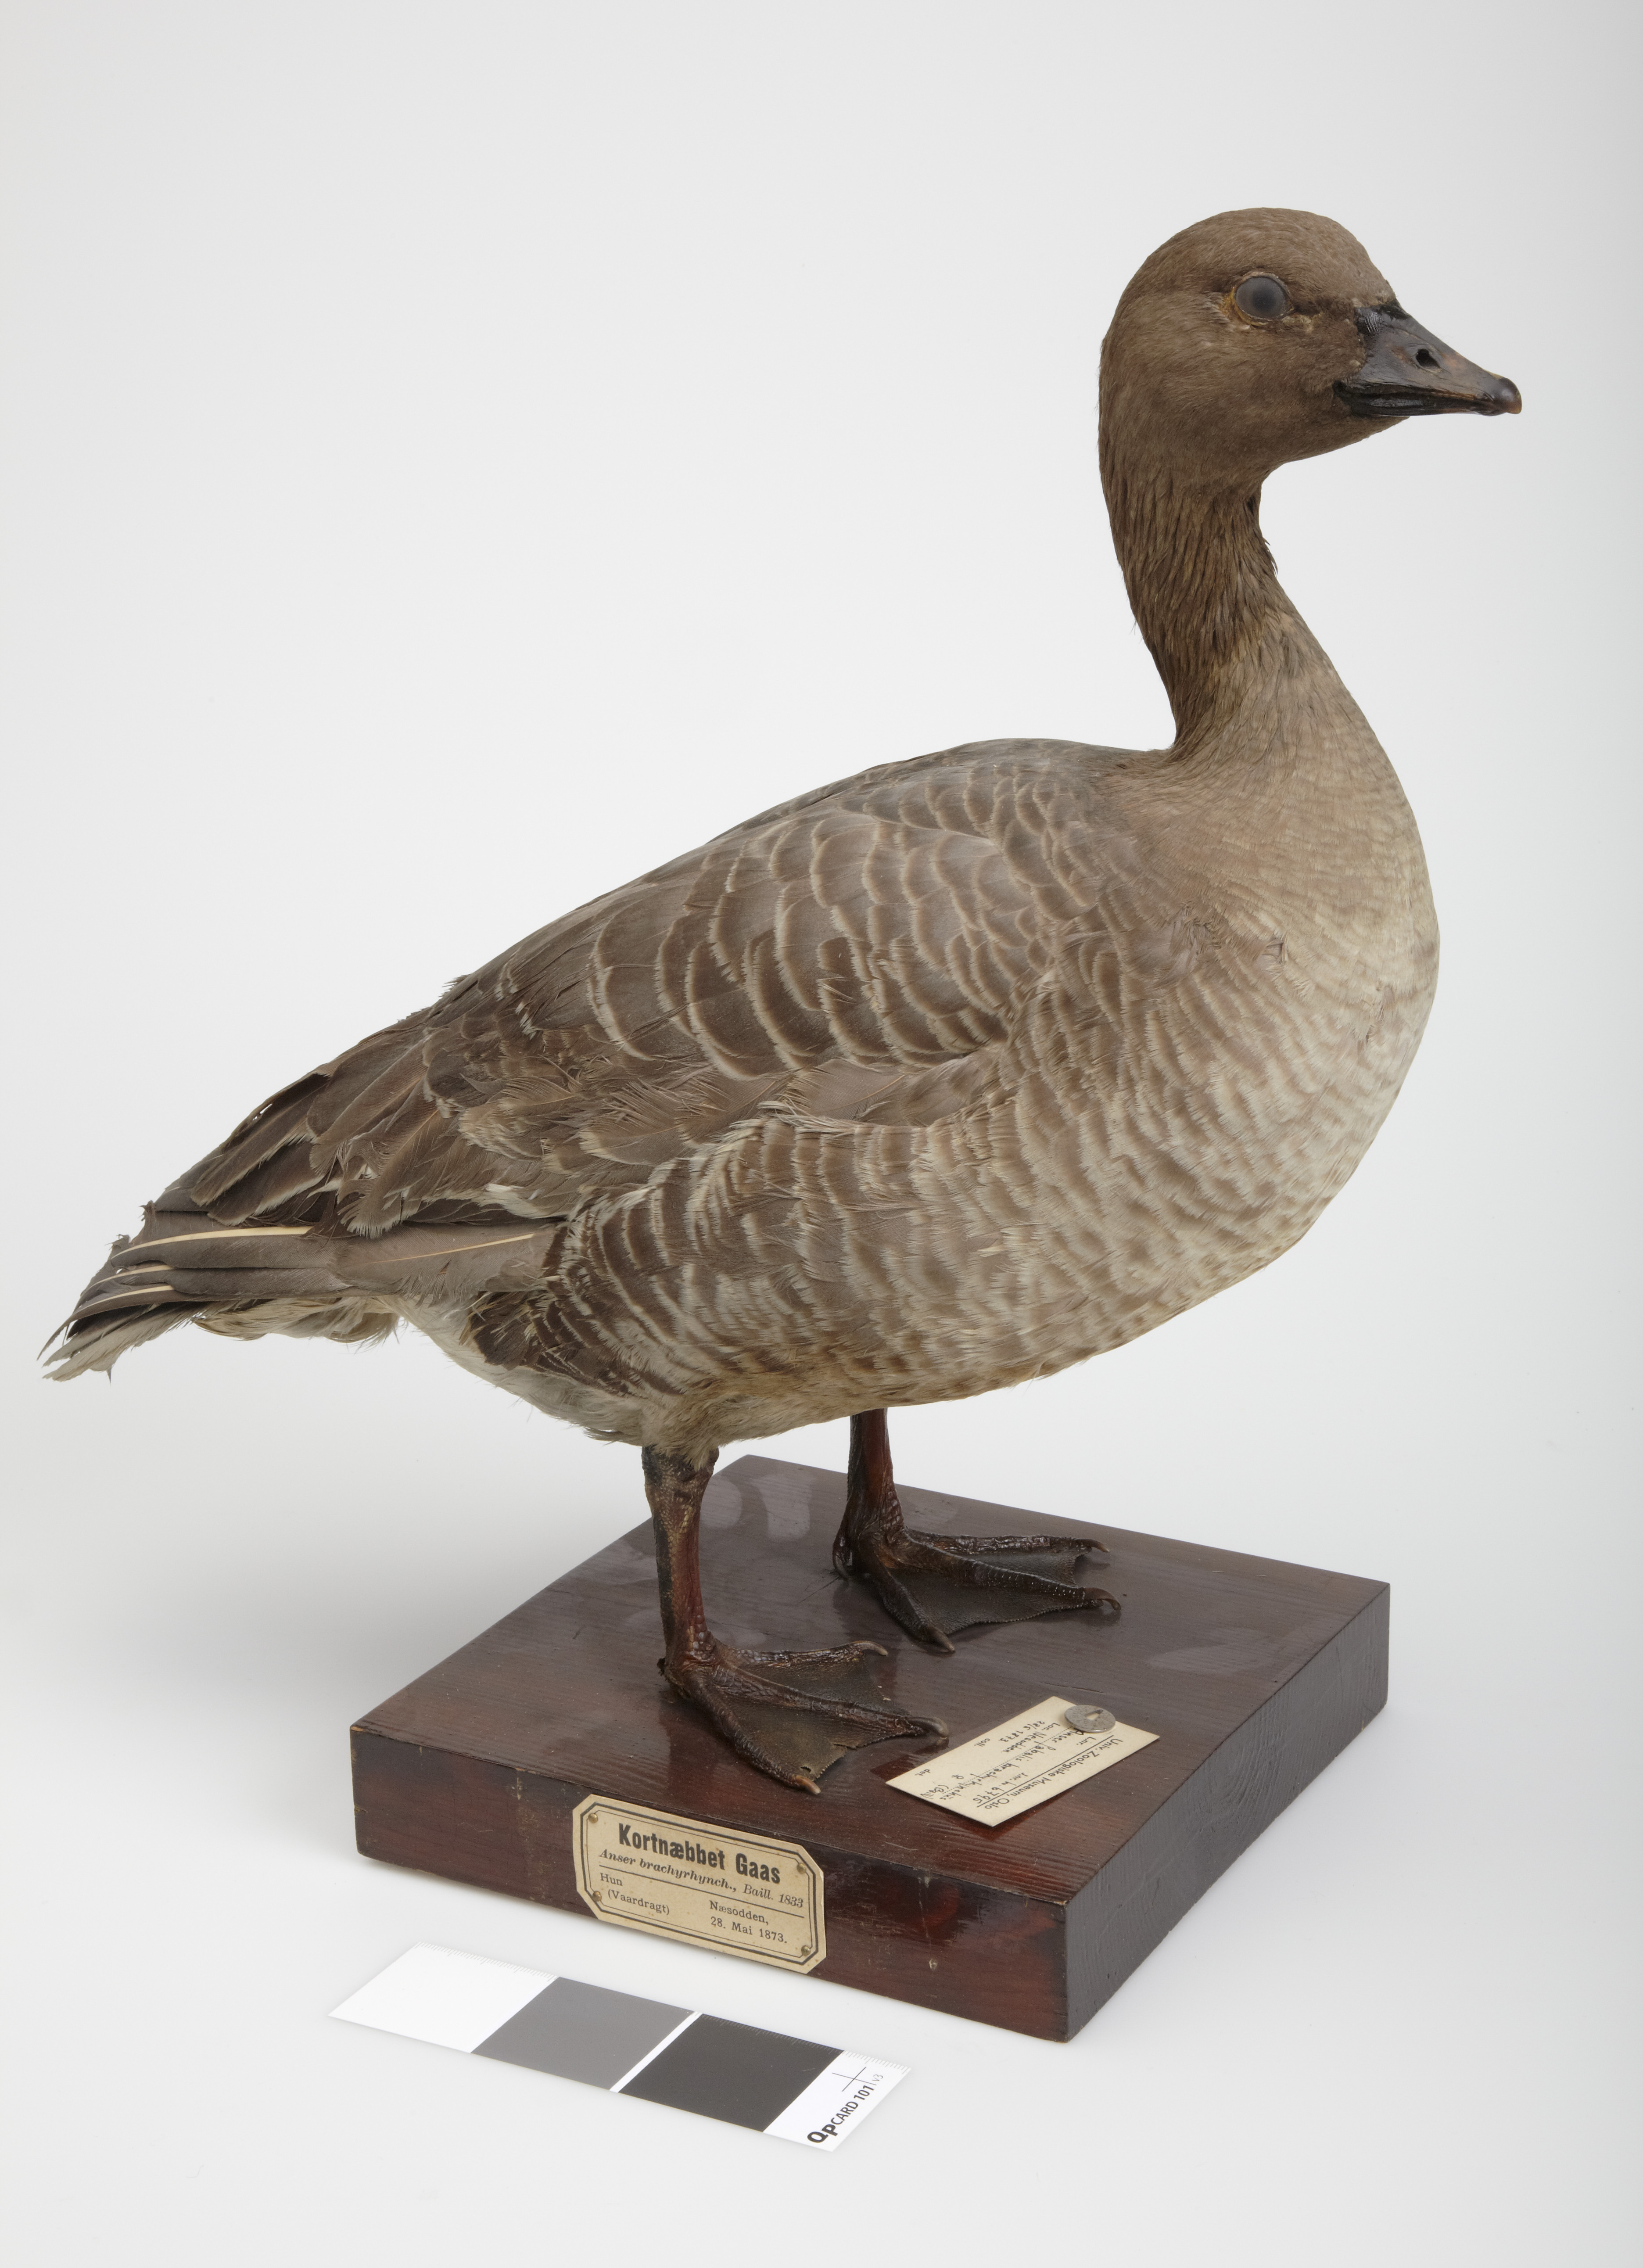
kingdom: Animalia
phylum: Chordata
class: Aves
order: Anseriformes
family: Anatidae
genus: Anser
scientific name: Anser brachyrhynchus
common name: Pink-footed goose
